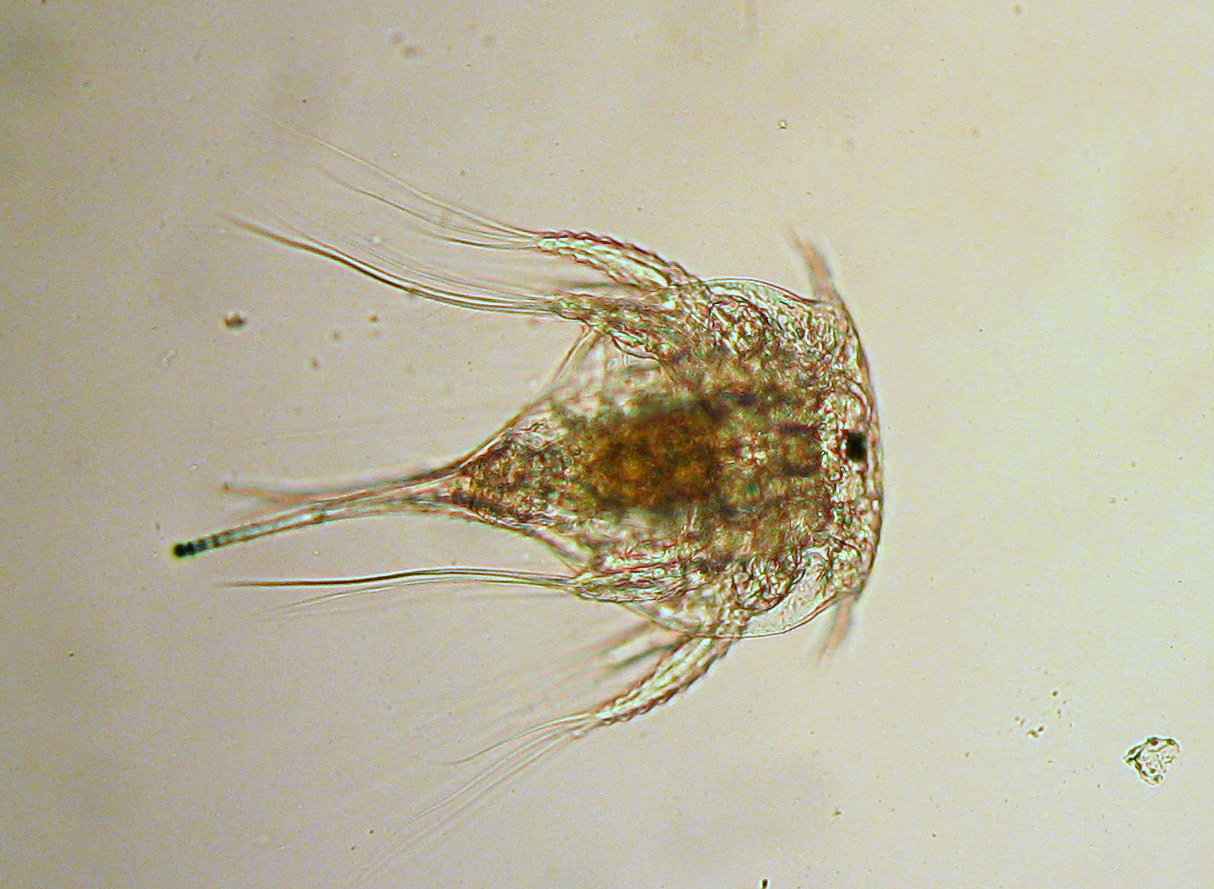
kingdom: Animalia
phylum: Arthropoda
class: Maxillopoda
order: Sessilia
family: Archaeobalanidae
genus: Semibalanus
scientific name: Semibalanus balanoides
